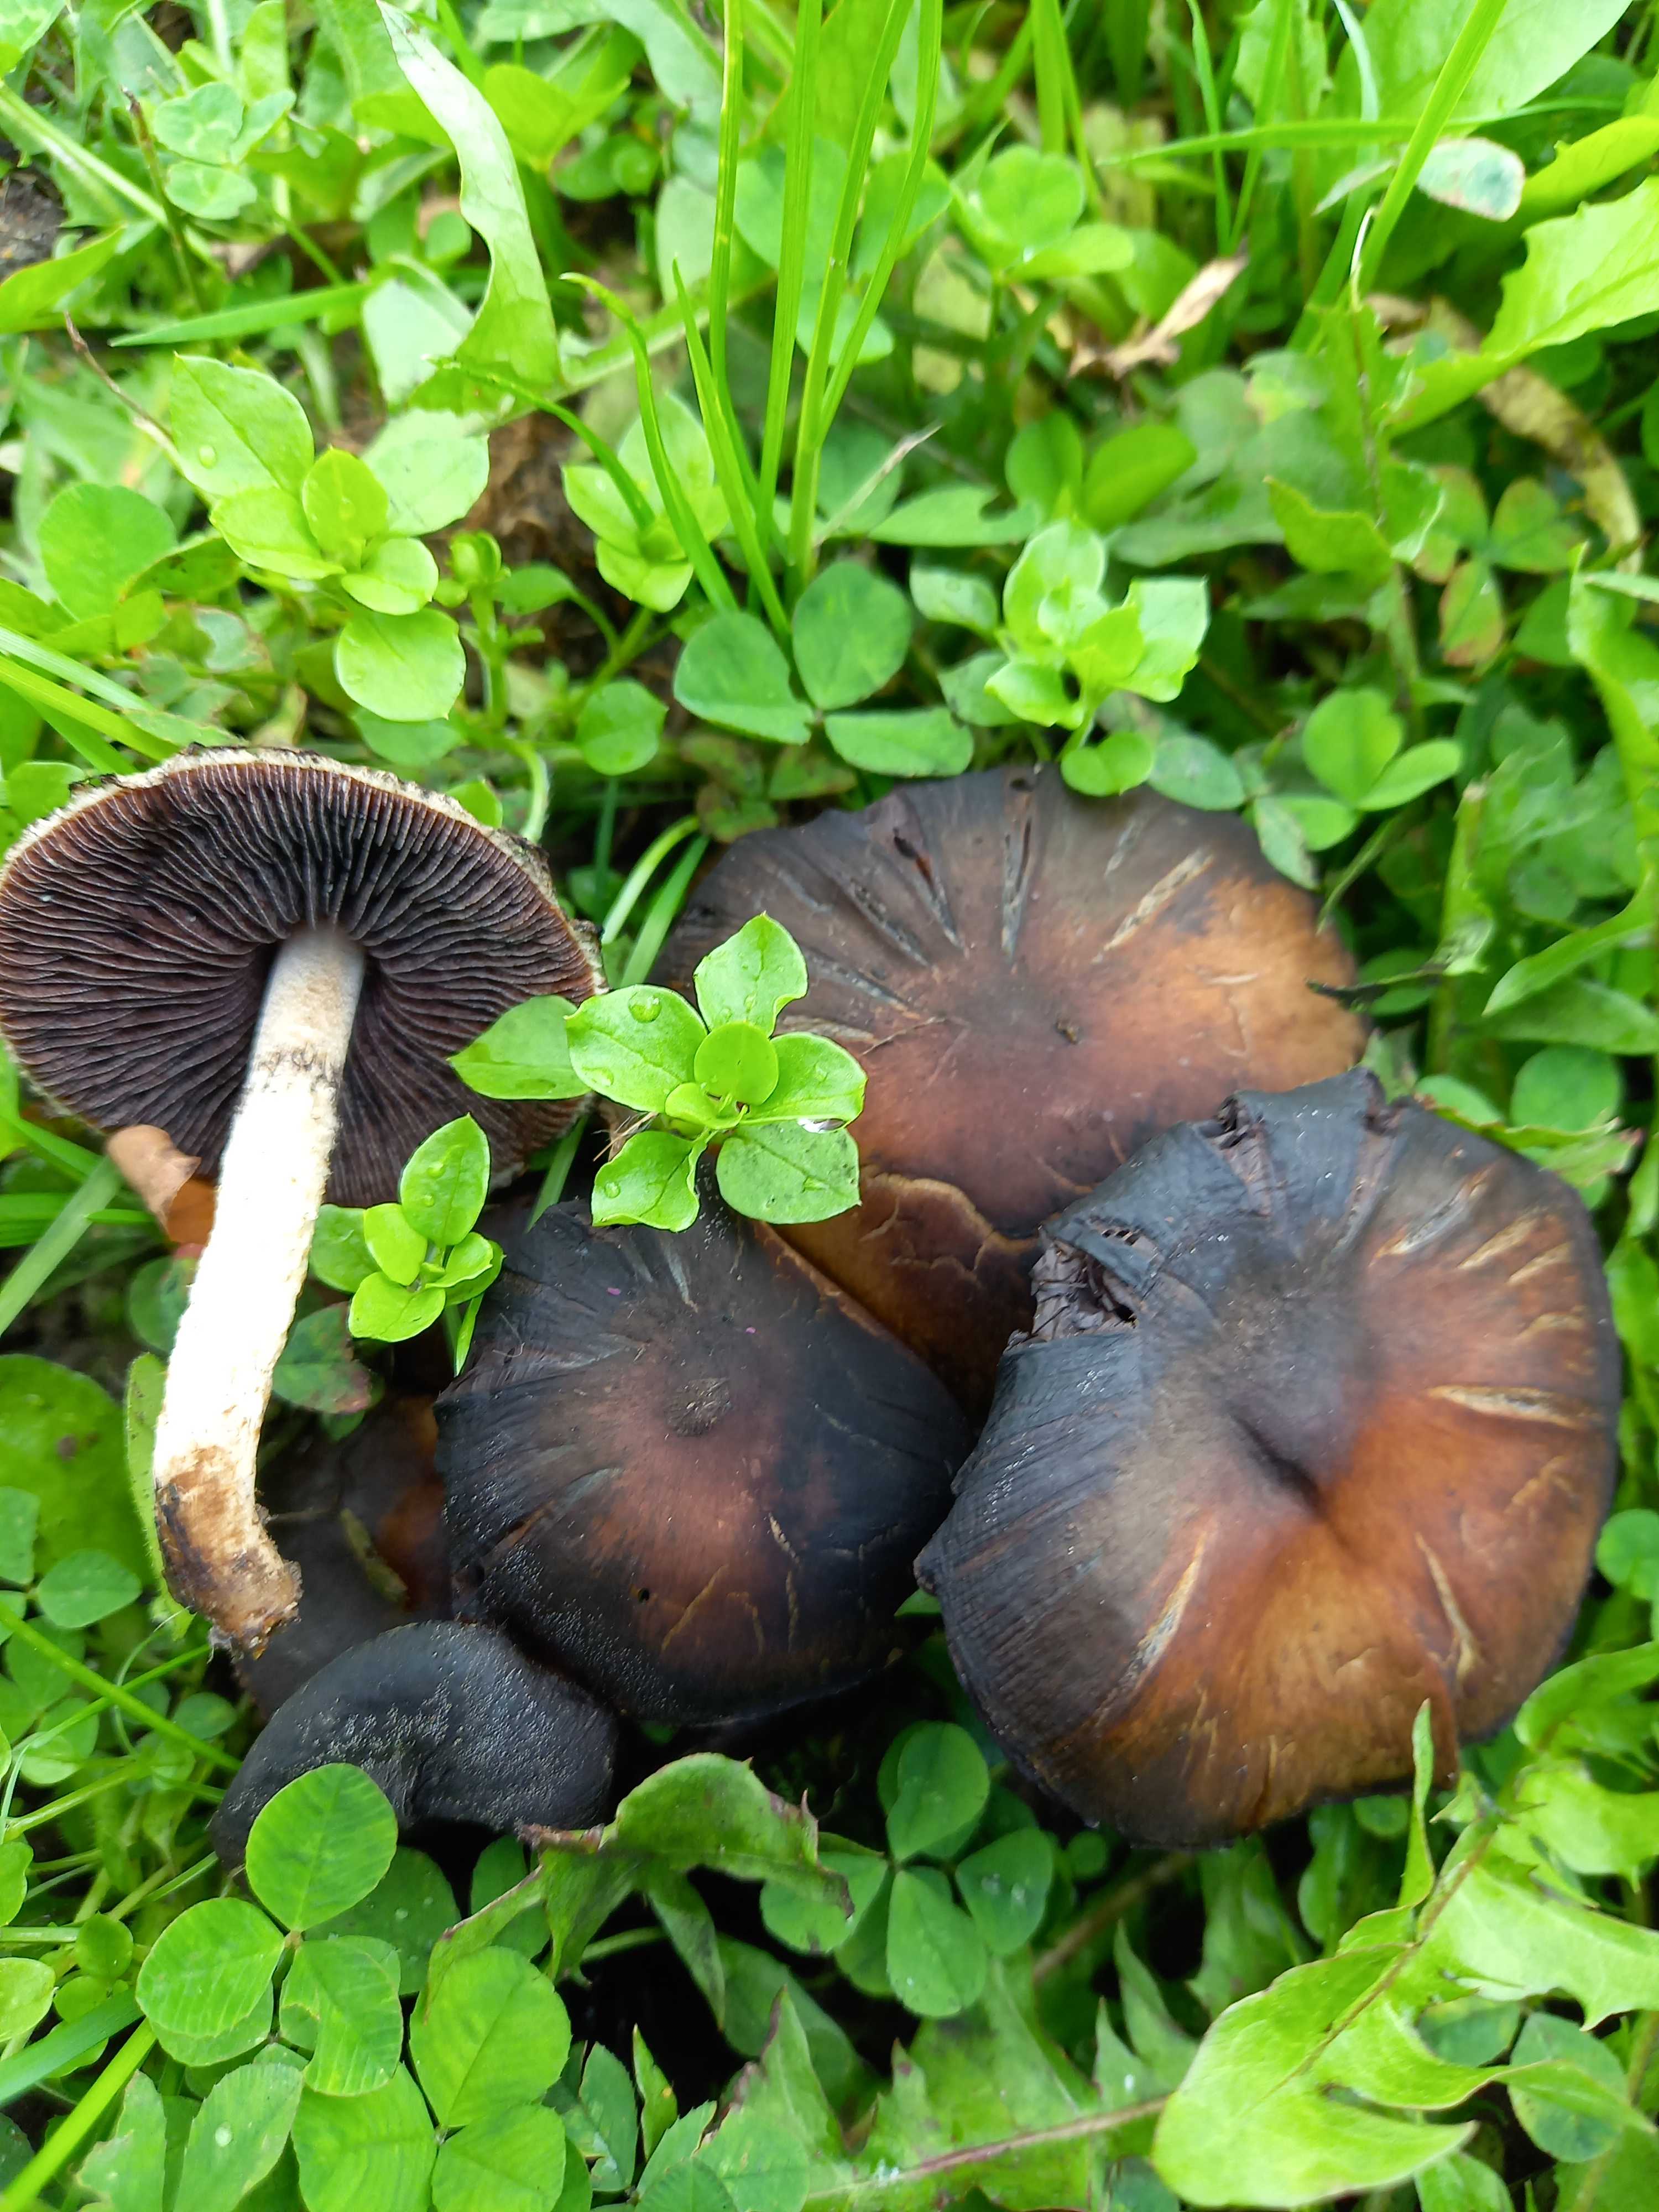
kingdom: Fungi
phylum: Basidiomycota
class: Agaricomycetes
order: Agaricales
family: Psathyrellaceae
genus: Lacrymaria
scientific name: Lacrymaria lacrymabunda
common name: grædende mørkhat
